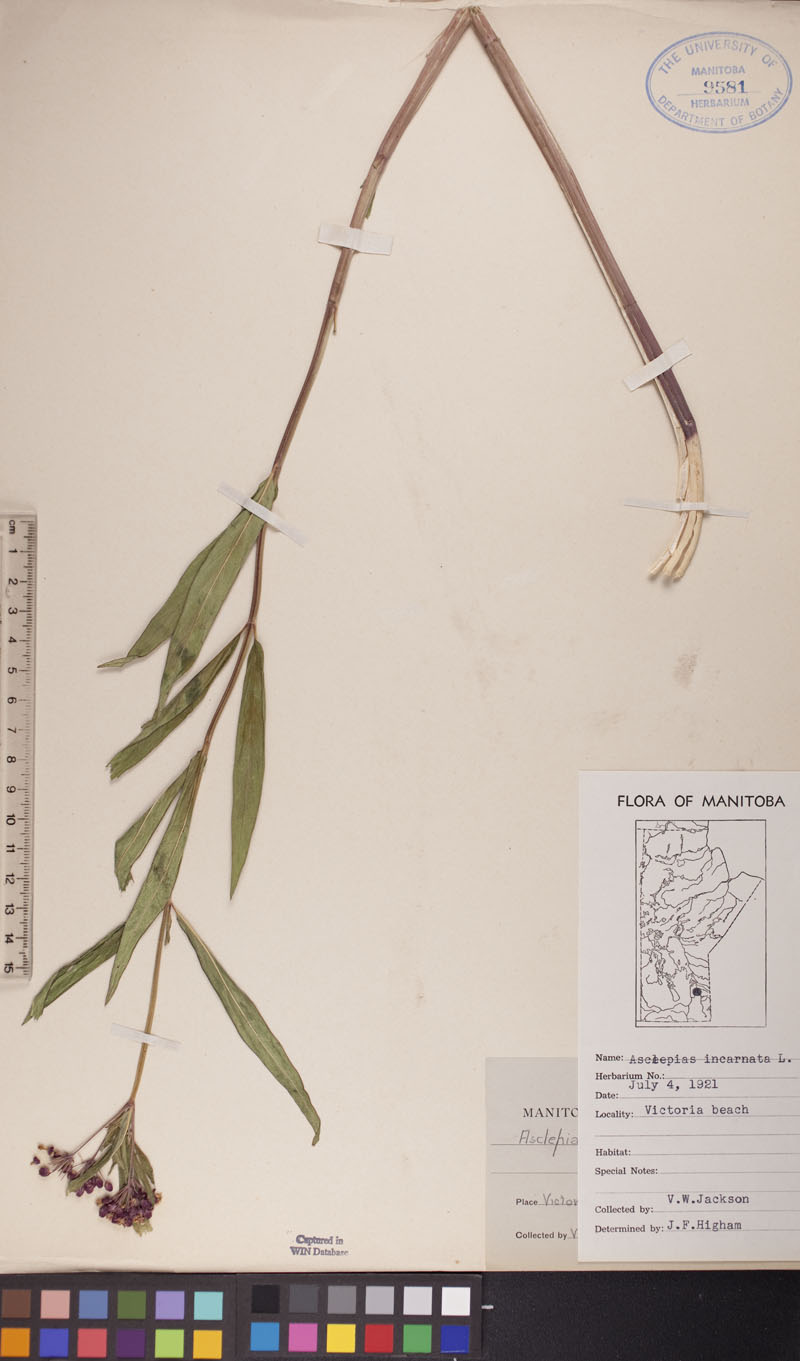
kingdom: Plantae
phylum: Tracheophyta
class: Magnoliopsida
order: Gentianales
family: Apocynaceae
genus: Asclepias
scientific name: Asclepias incarnata
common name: Swamp milkweed
